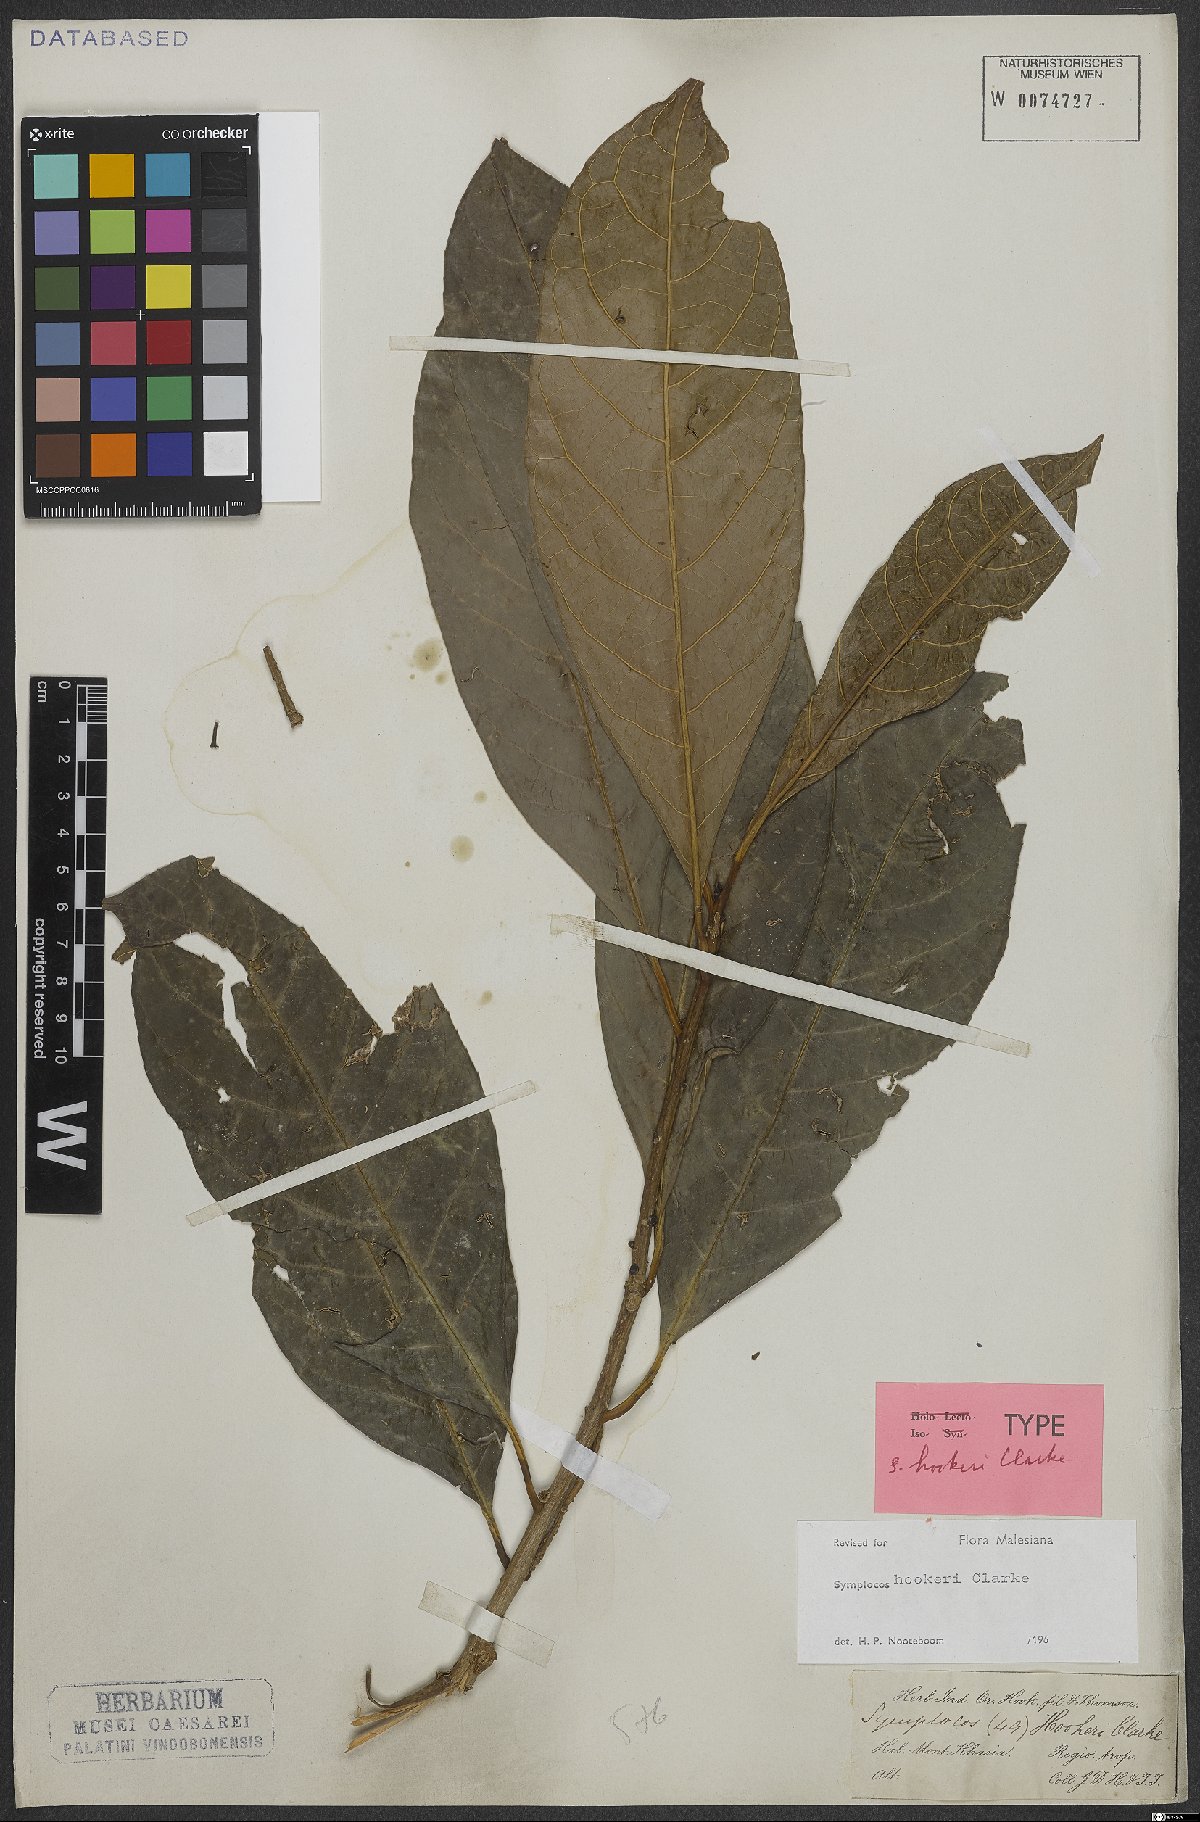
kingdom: Plantae
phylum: Tracheophyta
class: Magnoliopsida
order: Ericales
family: Symplocaceae
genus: Symplocos
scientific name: Symplocos hookeri
